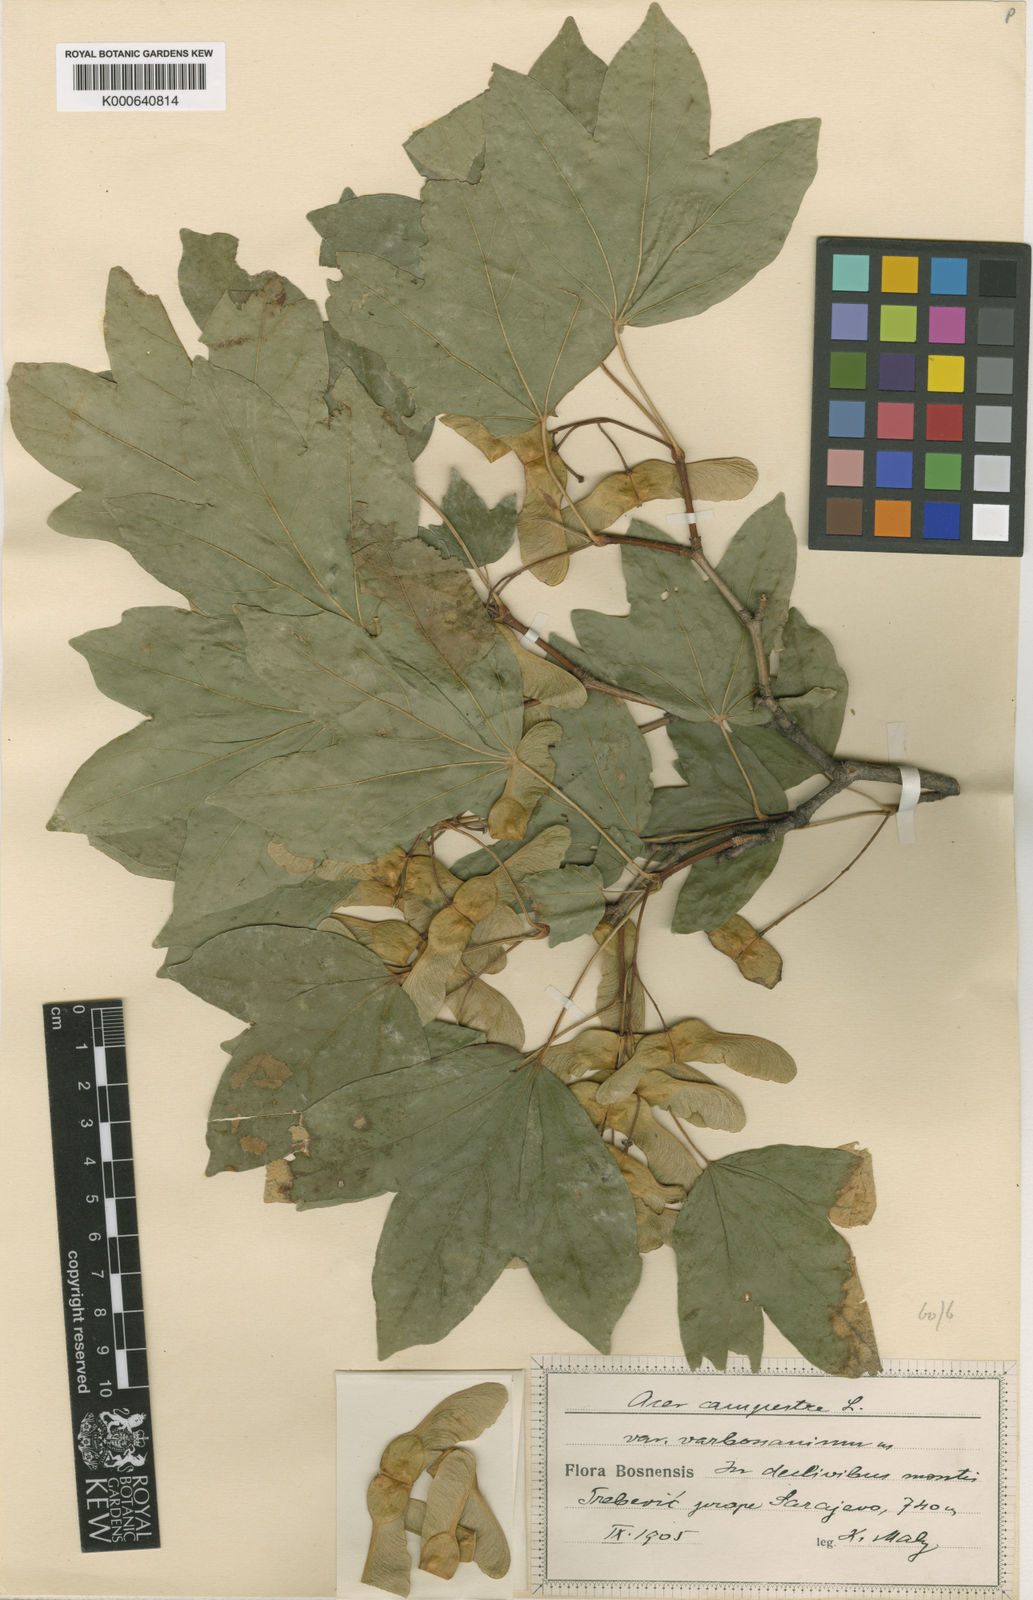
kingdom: Plantae
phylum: Tracheophyta
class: Magnoliopsida
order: Sapindales
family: Sapindaceae
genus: Acer
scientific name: Acer campestre
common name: Field maple
